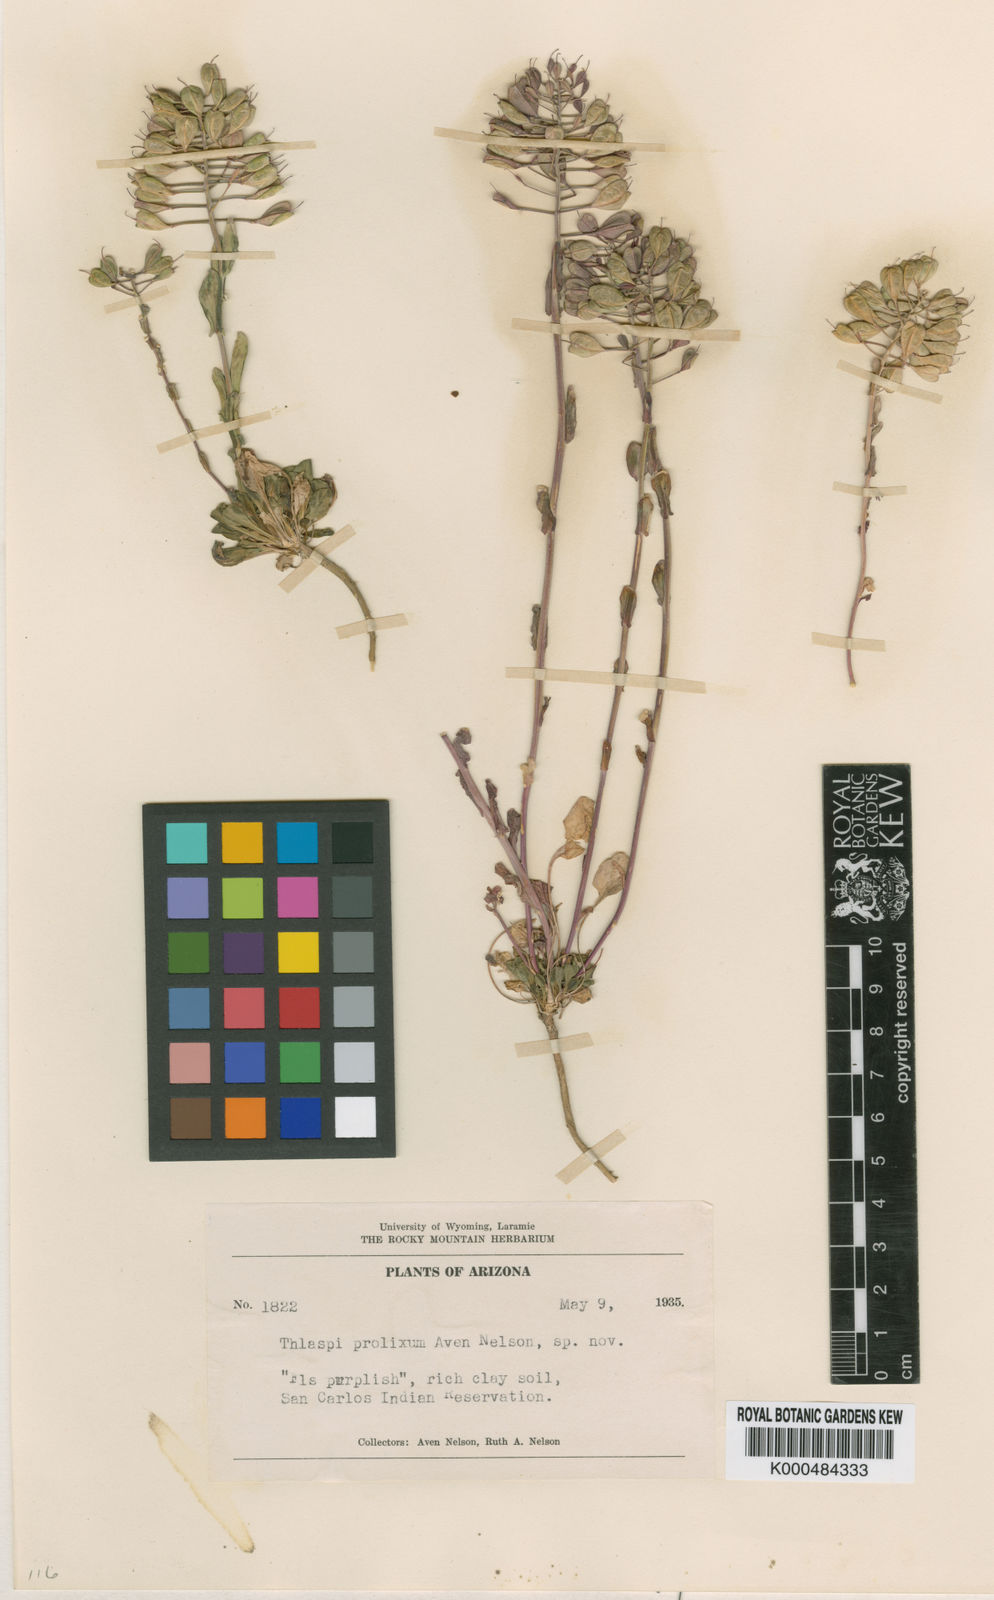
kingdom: Plantae
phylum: Tracheophyta
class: Magnoliopsida
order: Brassicales
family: Brassicaceae
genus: Noccaea
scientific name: Noccaea fendleri
